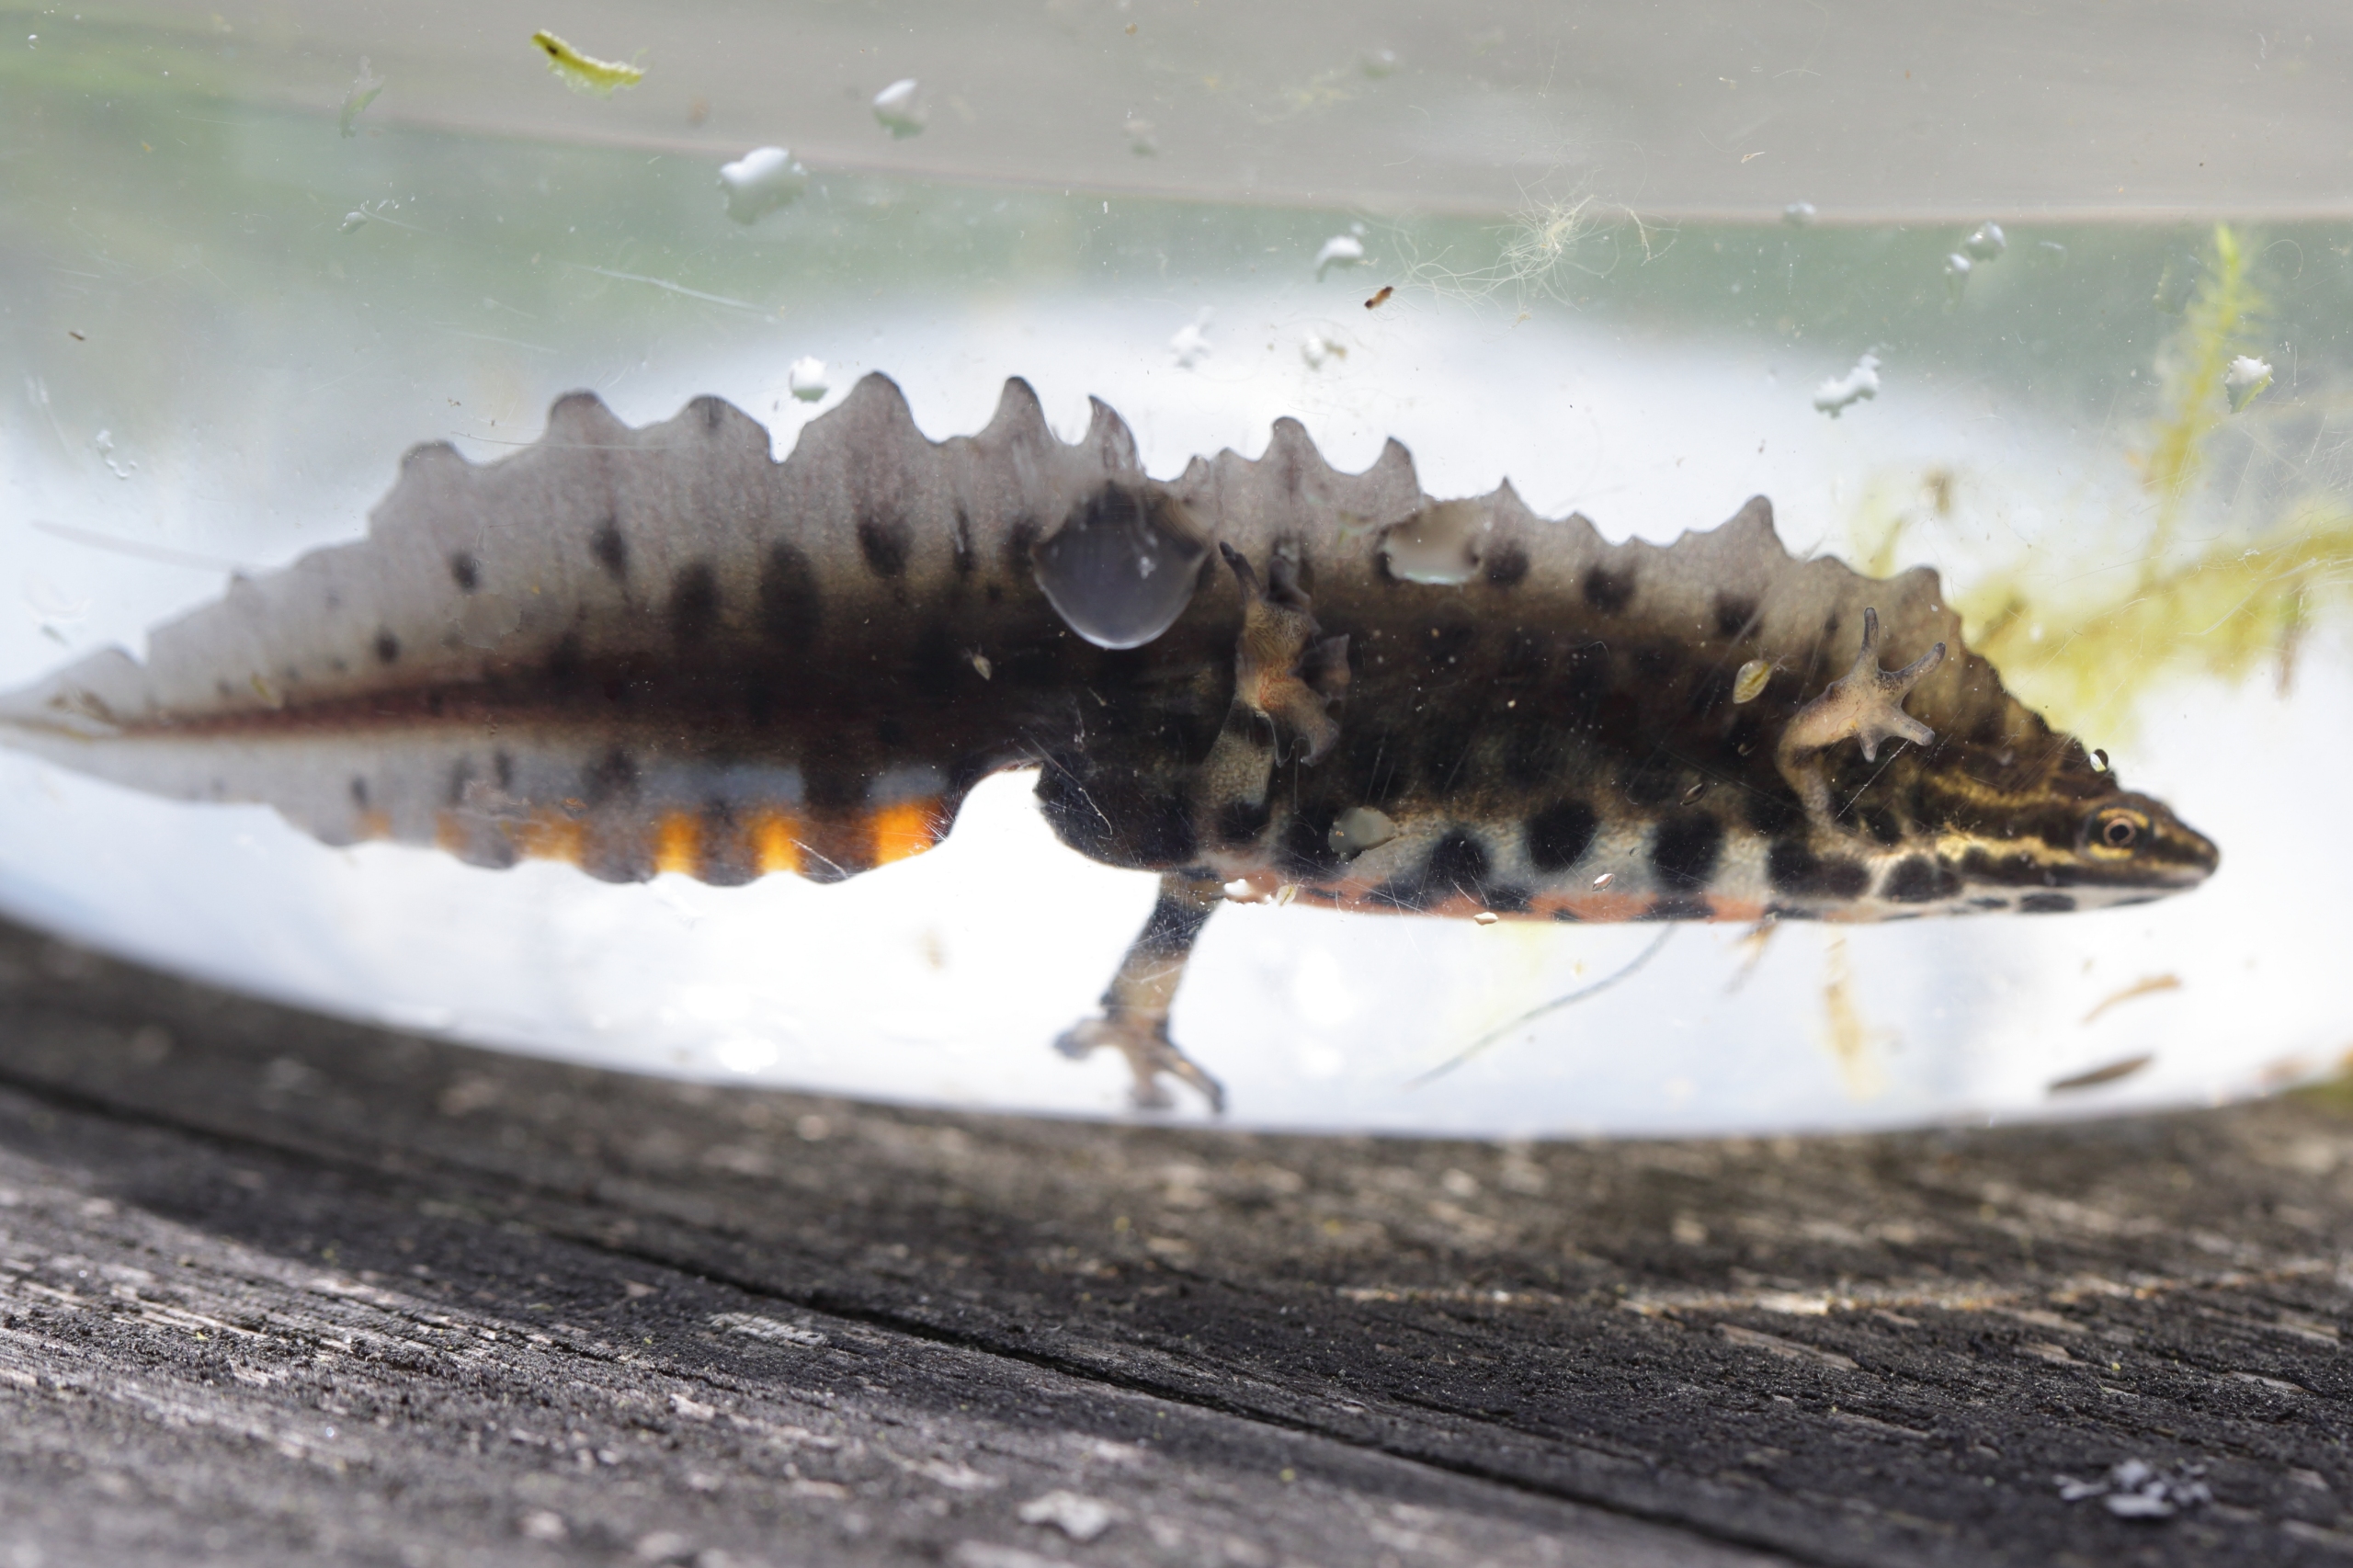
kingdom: Animalia
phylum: Chordata
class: Amphibia
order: Caudata
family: Salamandridae
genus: Lissotriton
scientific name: Lissotriton vulgaris
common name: Lille vandsalamander
